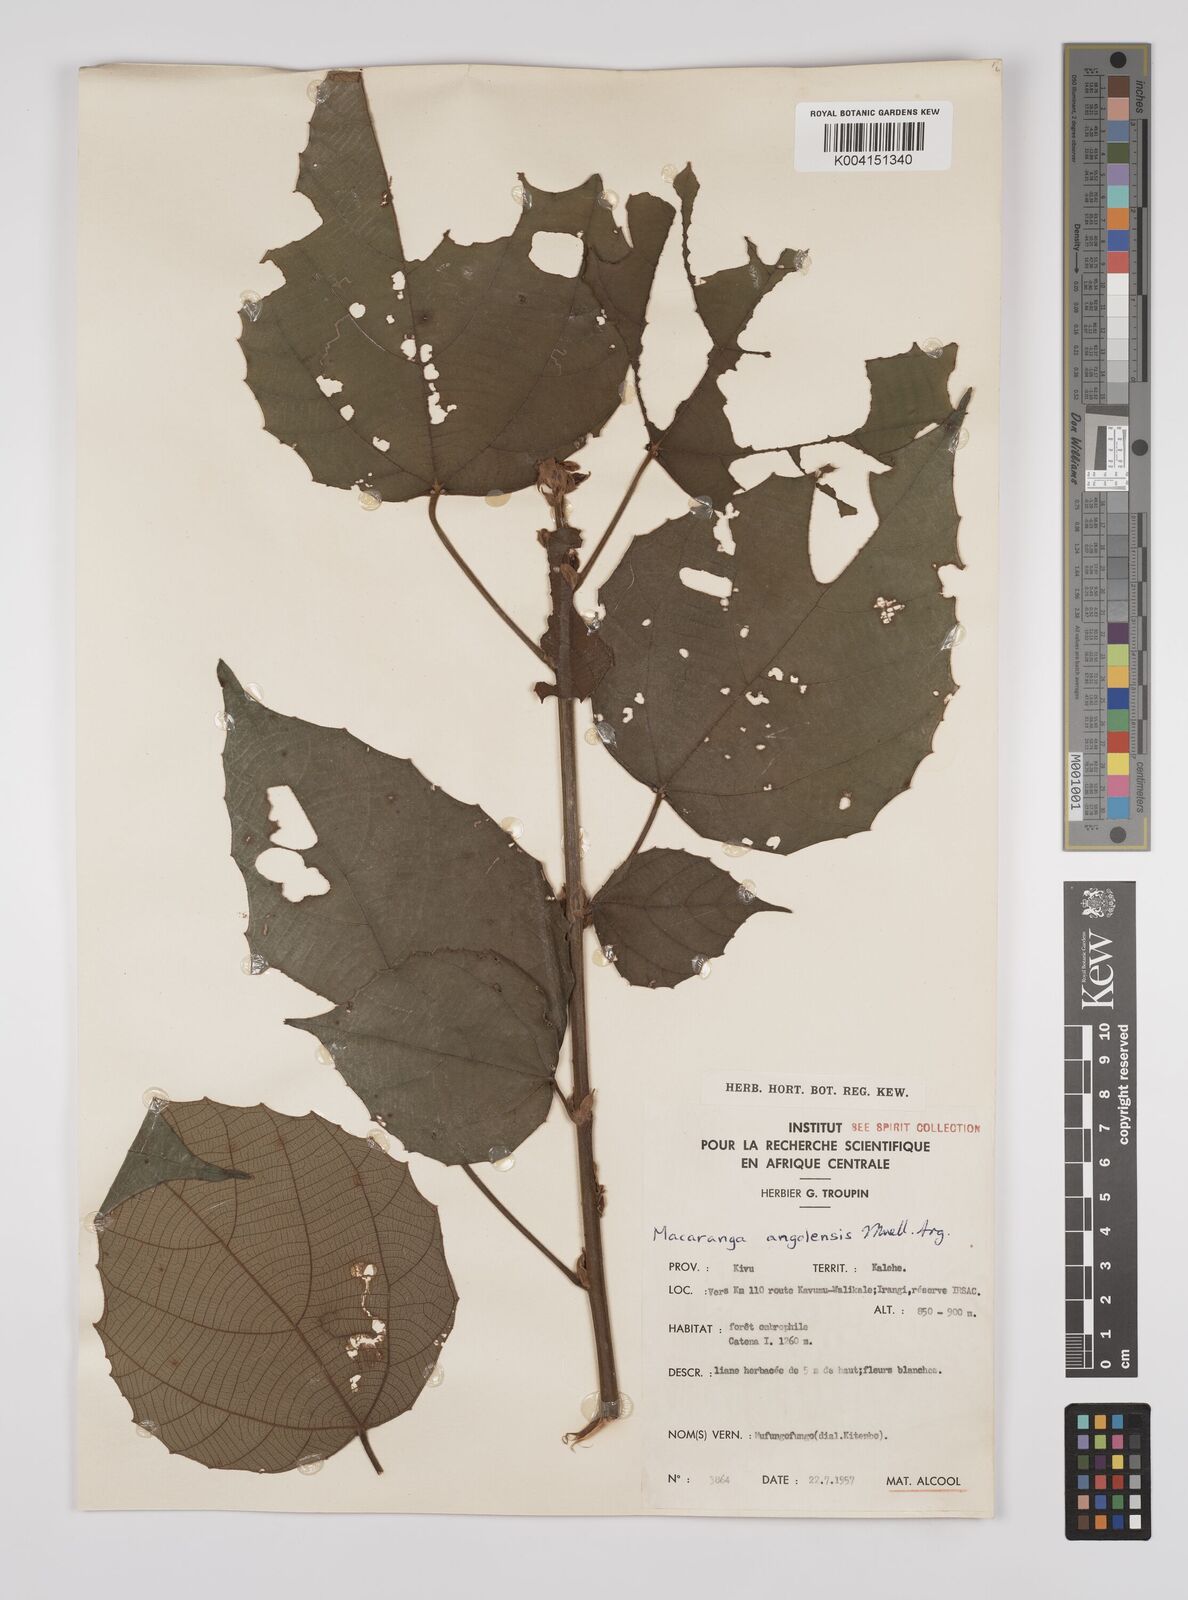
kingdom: Plantae
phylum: Tracheophyta
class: Magnoliopsida
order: Malpighiales
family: Euphorbiaceae
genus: Macaranga
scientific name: Macaranga angolensis
